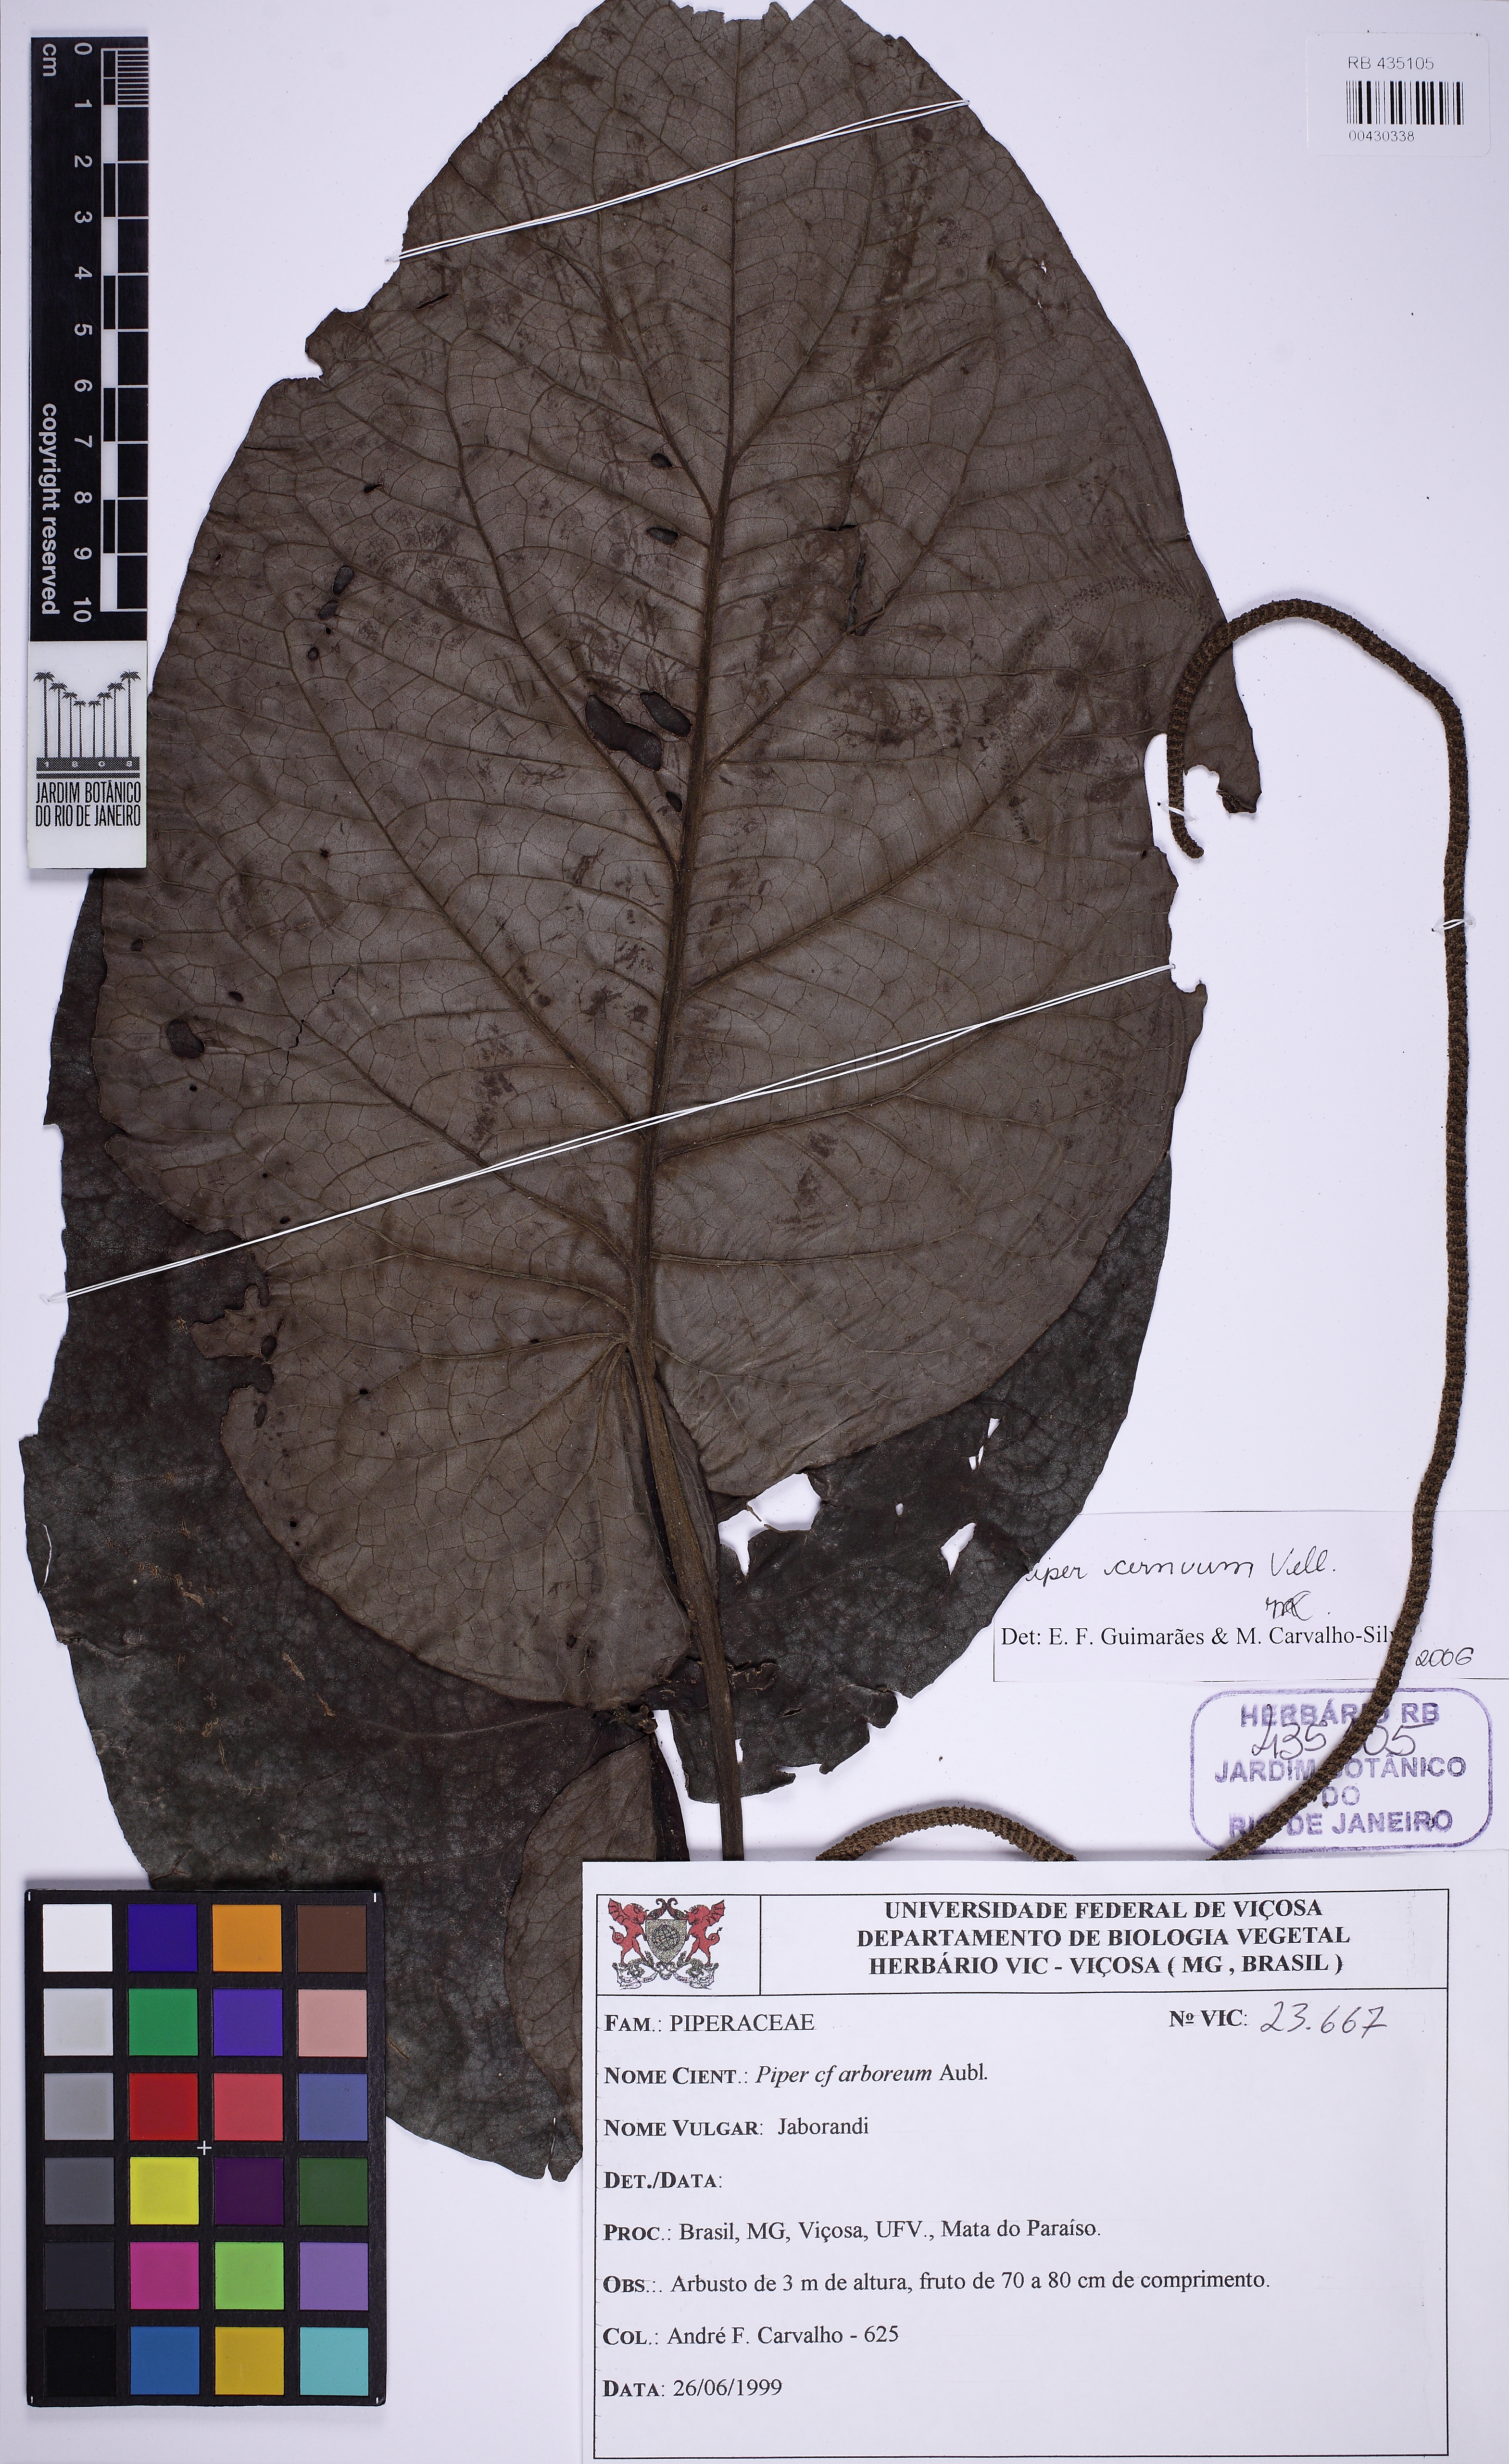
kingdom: Plantae
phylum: Tracheophyta
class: Magnoliopsida
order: Piperales
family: Piperaceae
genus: Piper
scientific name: Piper cernuum
